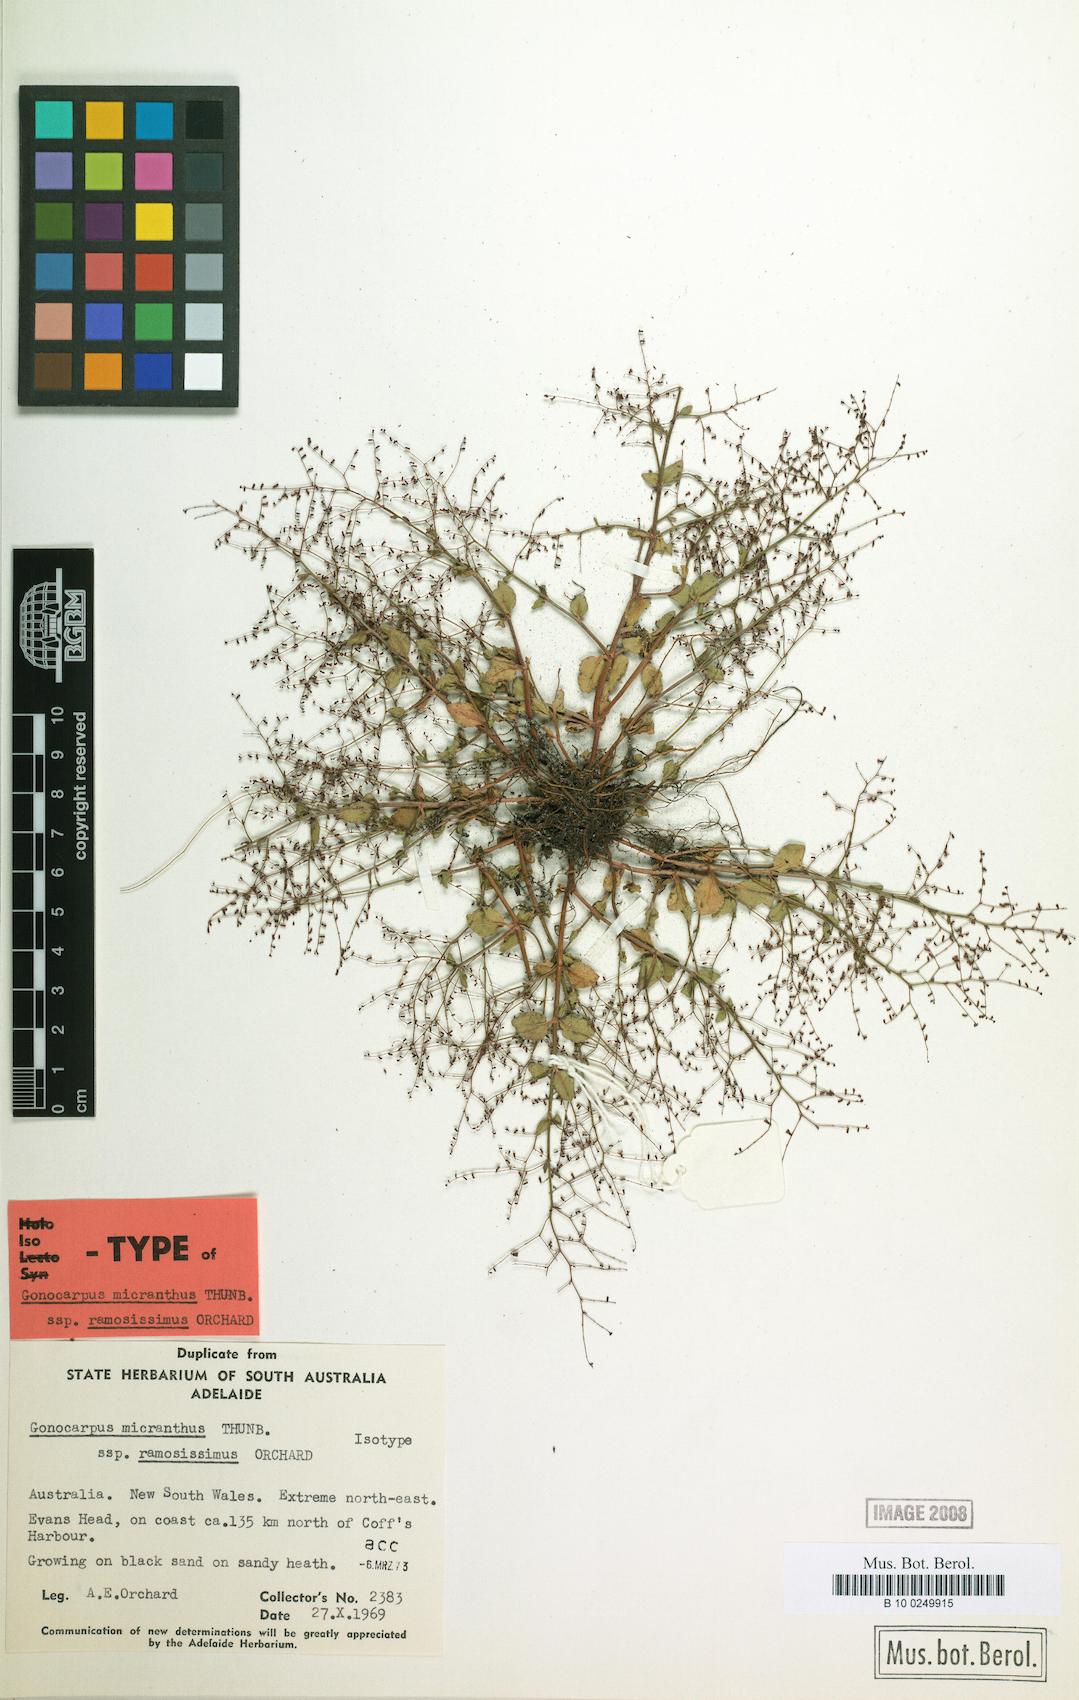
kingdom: Plantae
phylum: Tracheophyta
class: Magnoliopsida
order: Saxifragales
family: Haloragaceae
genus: Gonocarpus
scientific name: Gonocarpus micranthus
